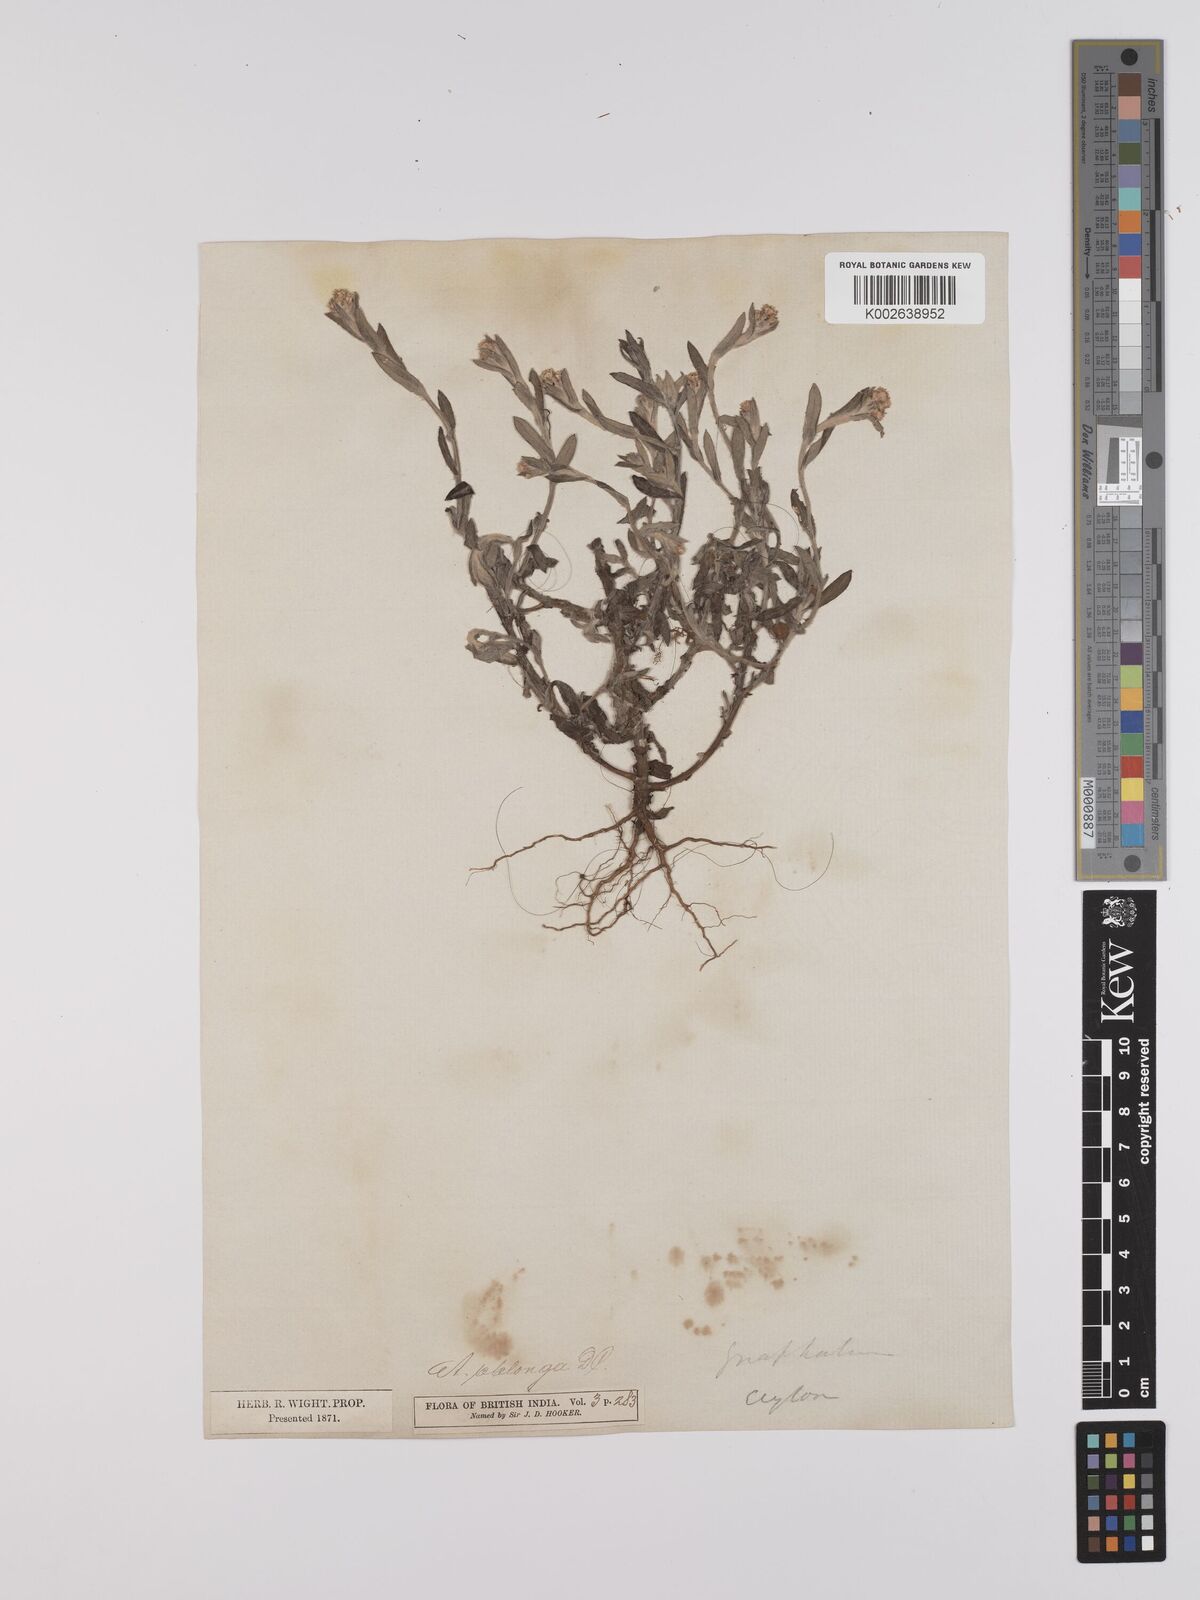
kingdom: Plantae
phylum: Tracheophyta
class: Magnoliopsida
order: Asterales
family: Asteraceae
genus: Anaphalis
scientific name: Anaphalis subdecurrens
